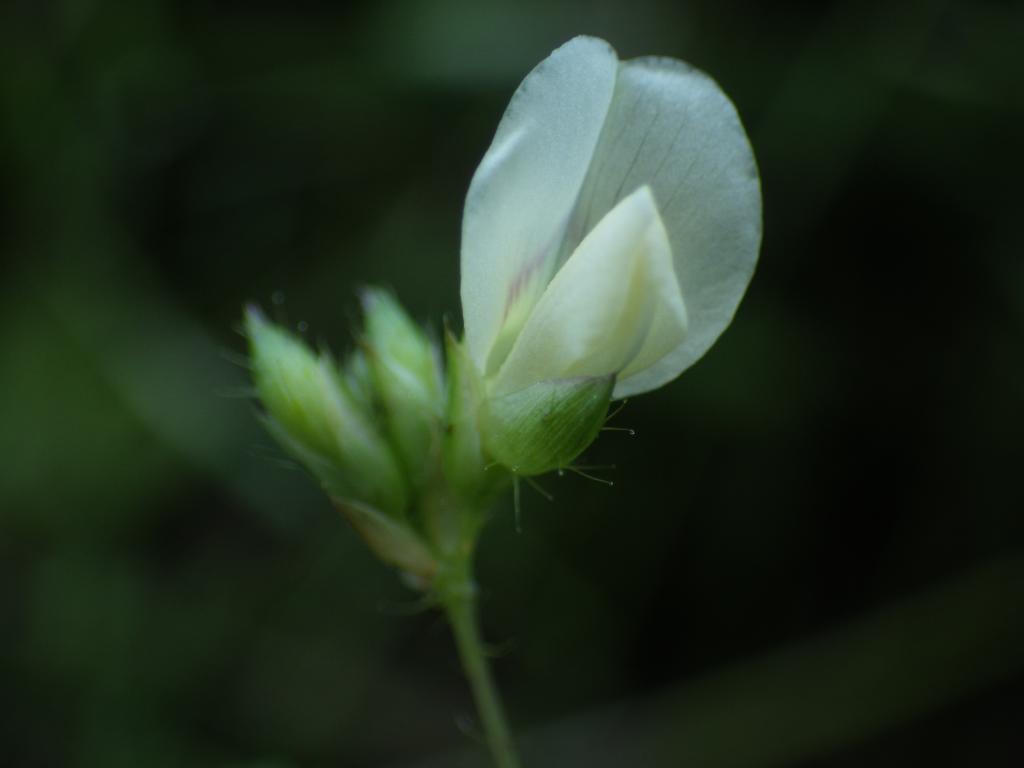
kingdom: Plantae
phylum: Tracheophyta
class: Magnoliopsida
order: Fabales
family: Fabaceae
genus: Smithia
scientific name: Smithia sensitiva
